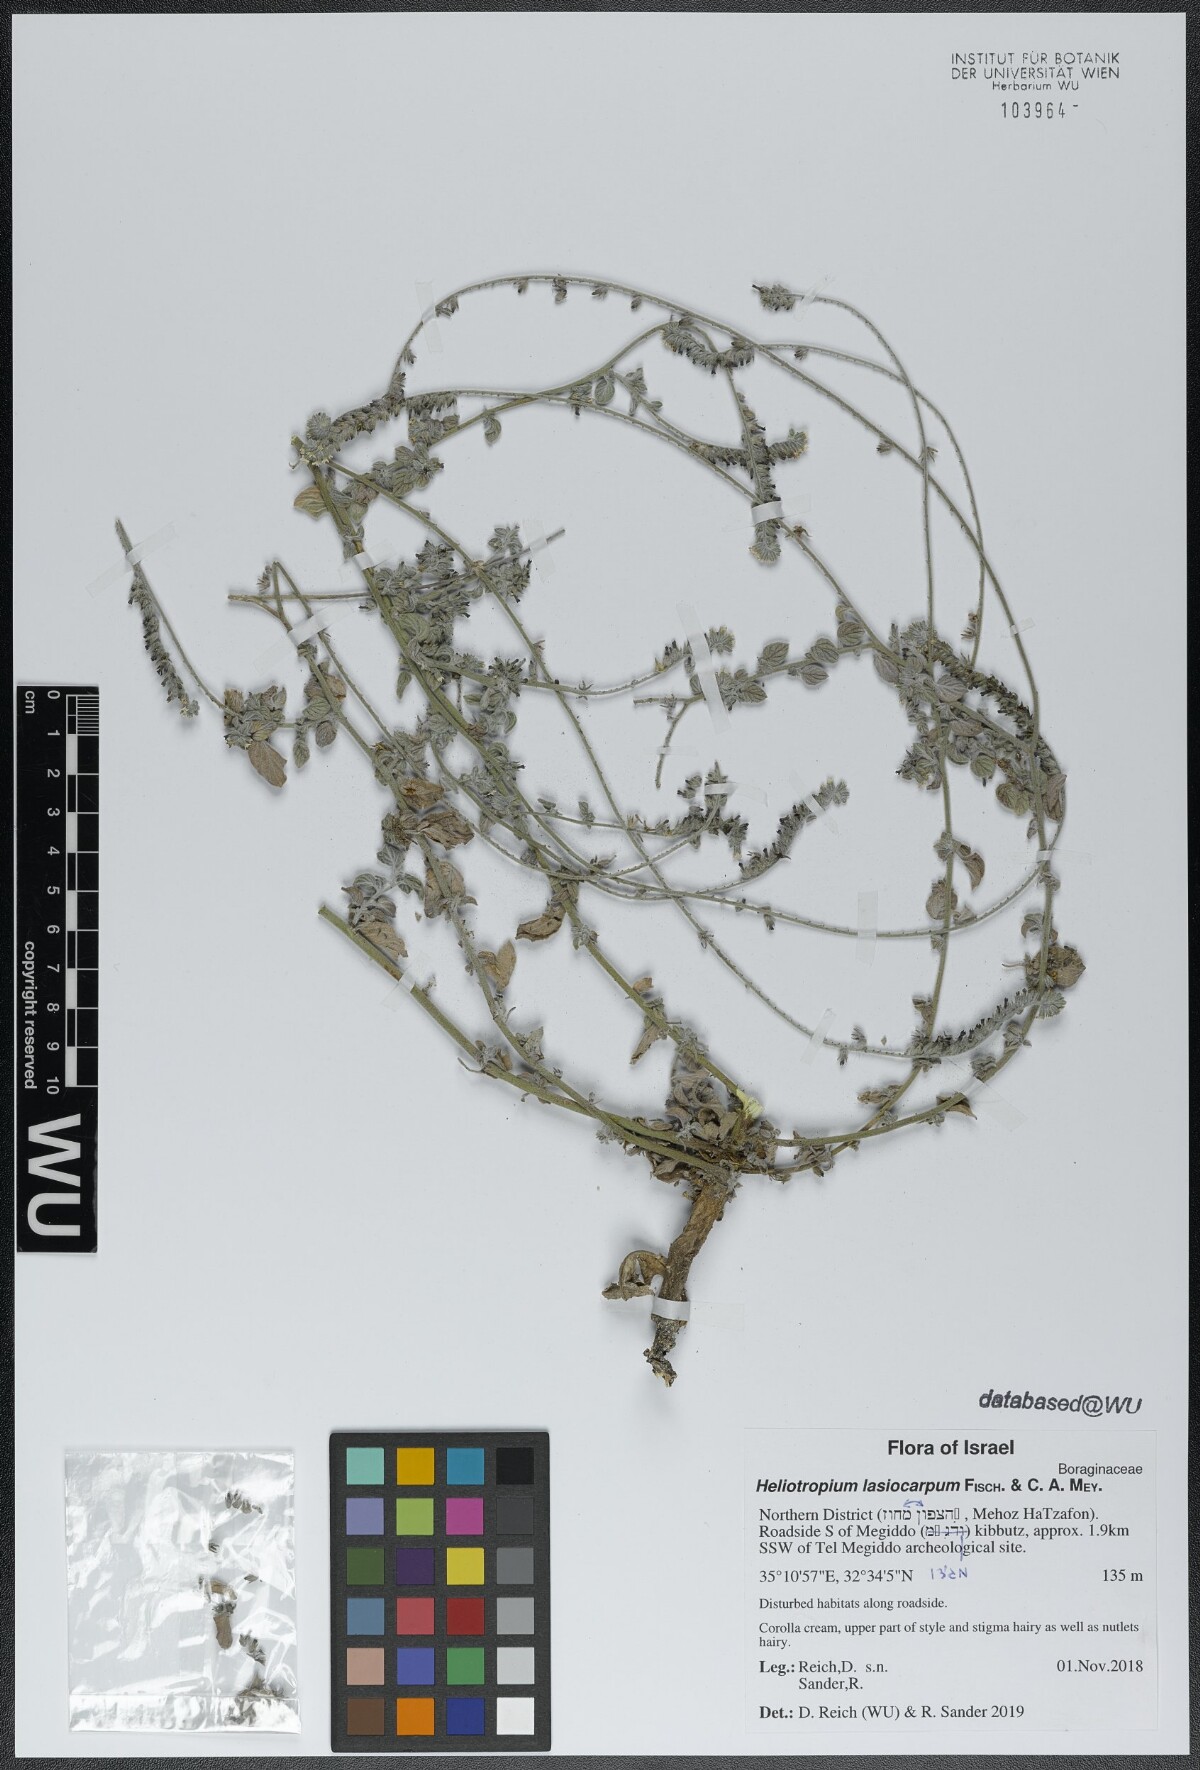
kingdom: Plantae
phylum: Tracheophyta
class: Magnoliopsida
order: Boraginales
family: Heliotropiaceae
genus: Heliotropium
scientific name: Heliotropium lasiocarpum
